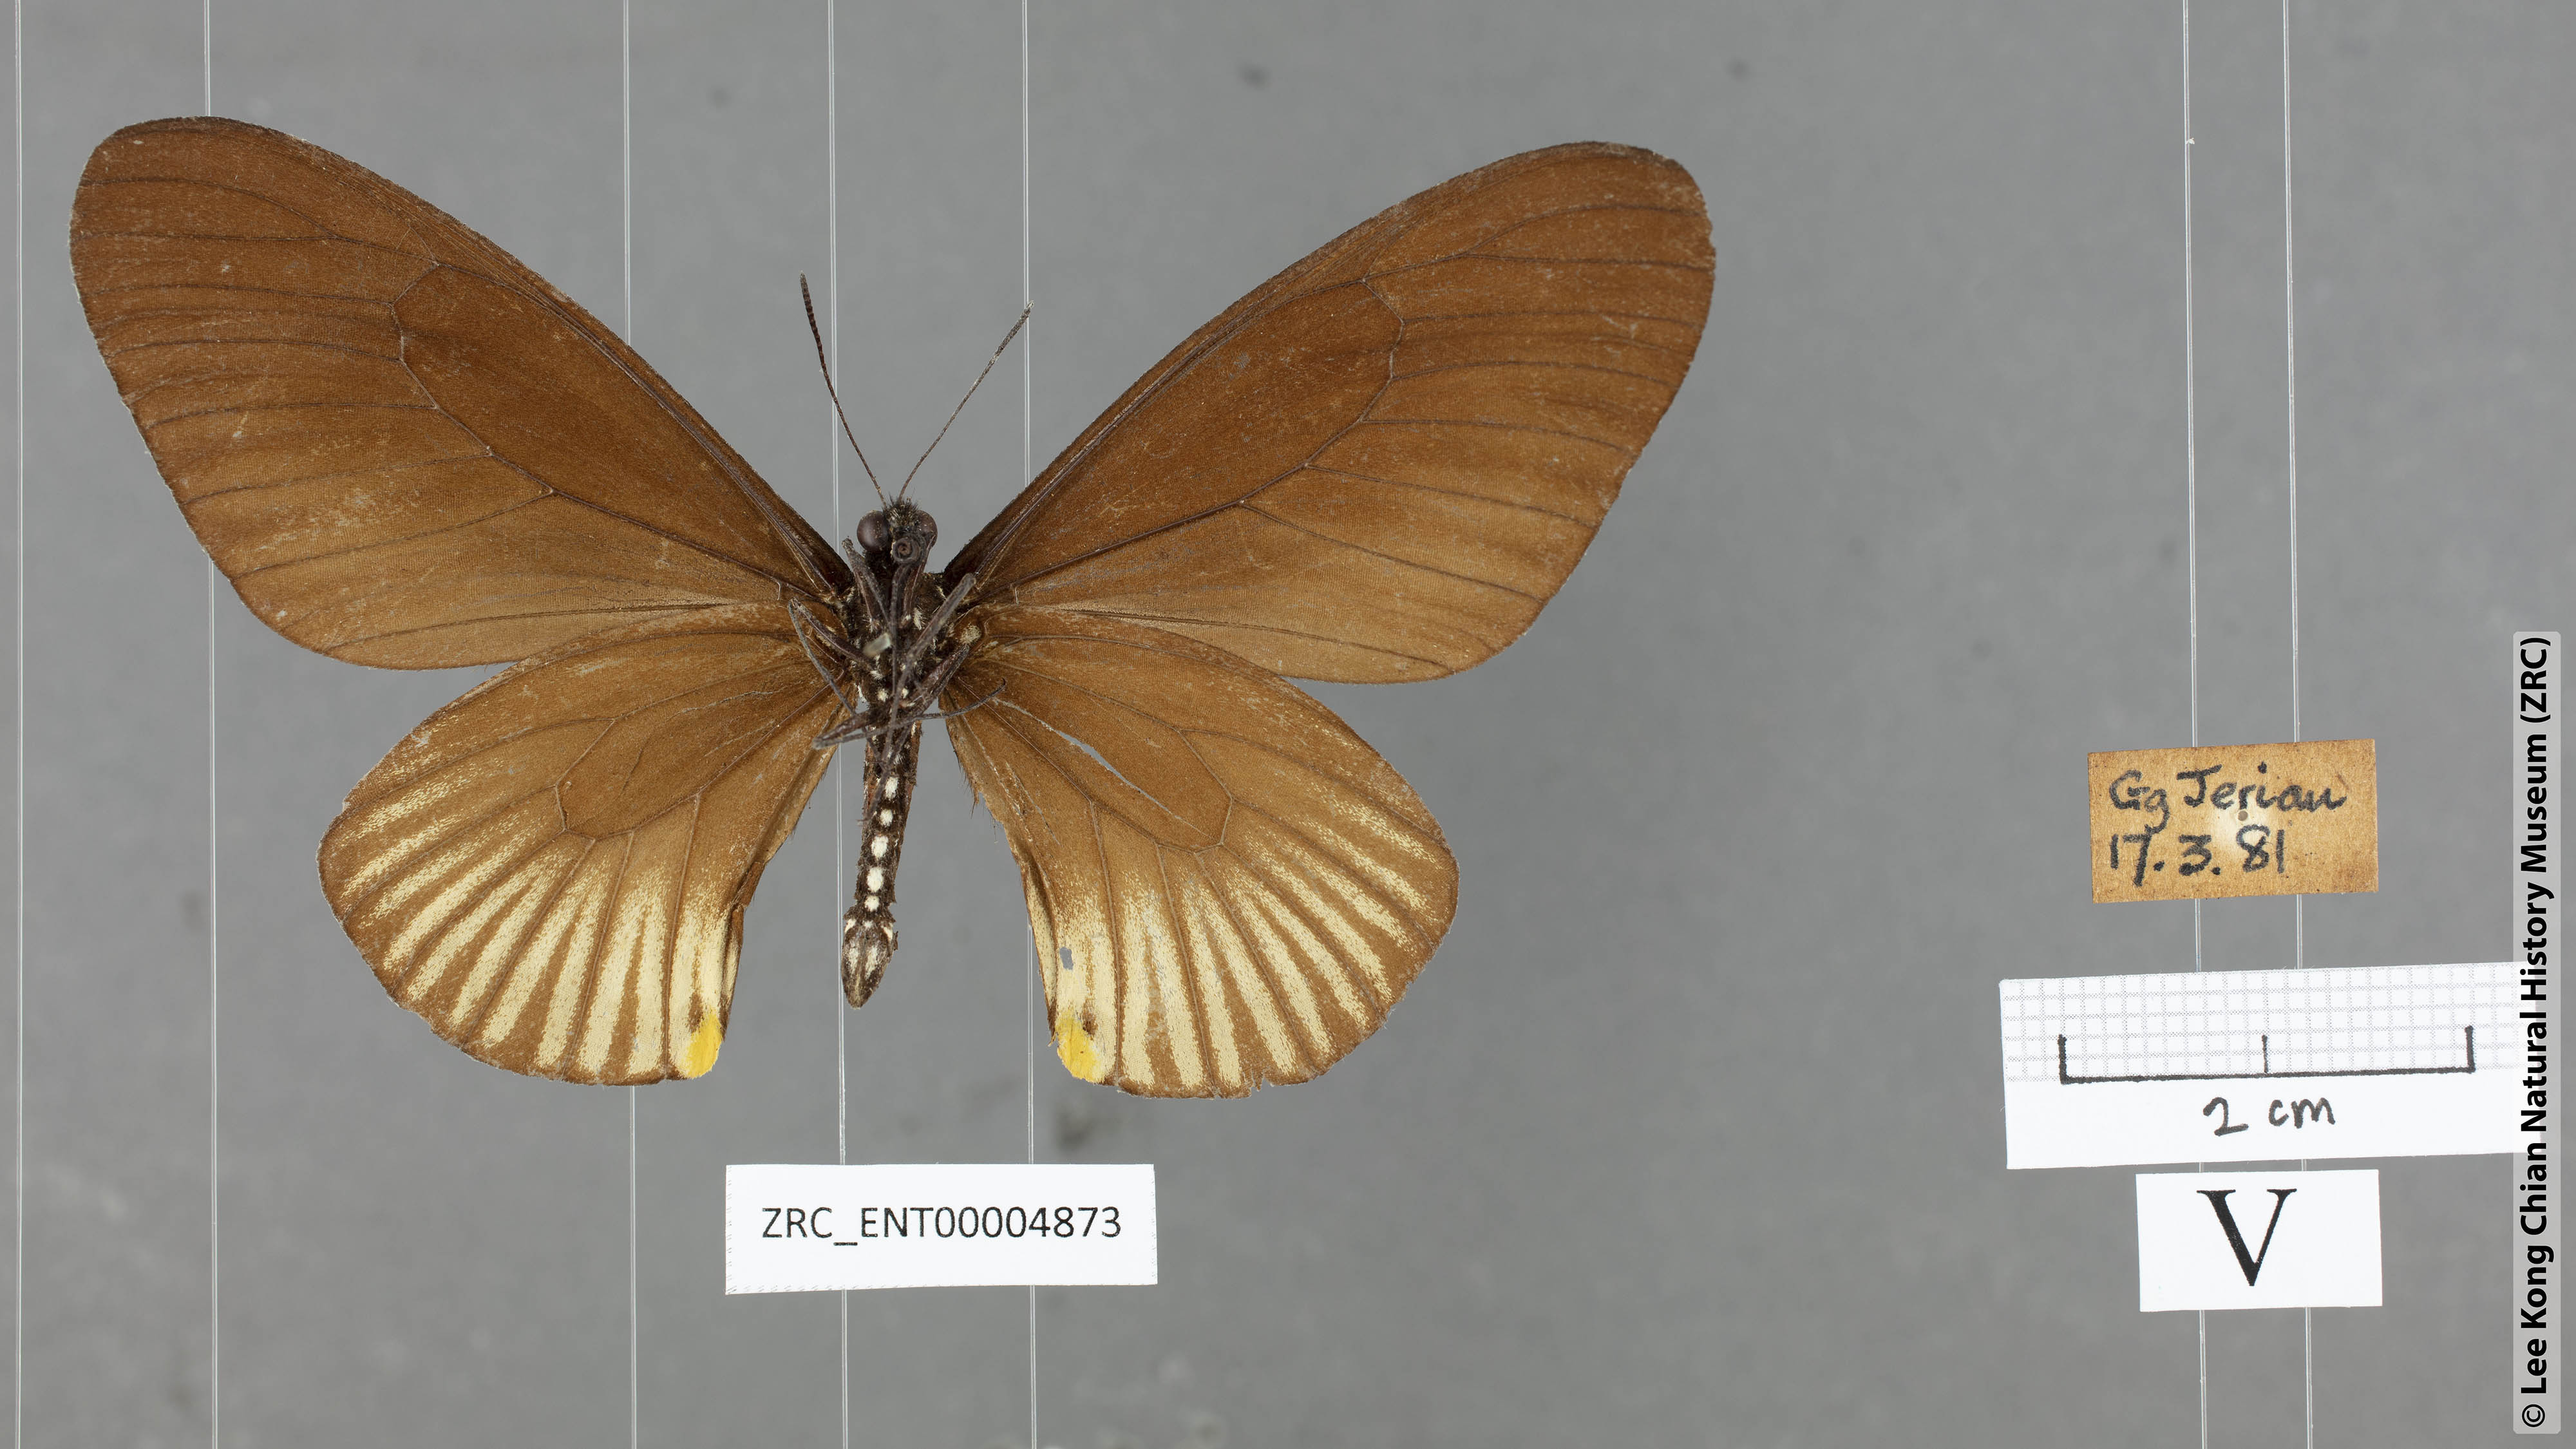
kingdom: Animalia
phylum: Arthropoda
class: Insecta
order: Lepidoptera
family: Papilionidae
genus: Chilasa
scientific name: Chilasa slateri
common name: Blue-striped mime
